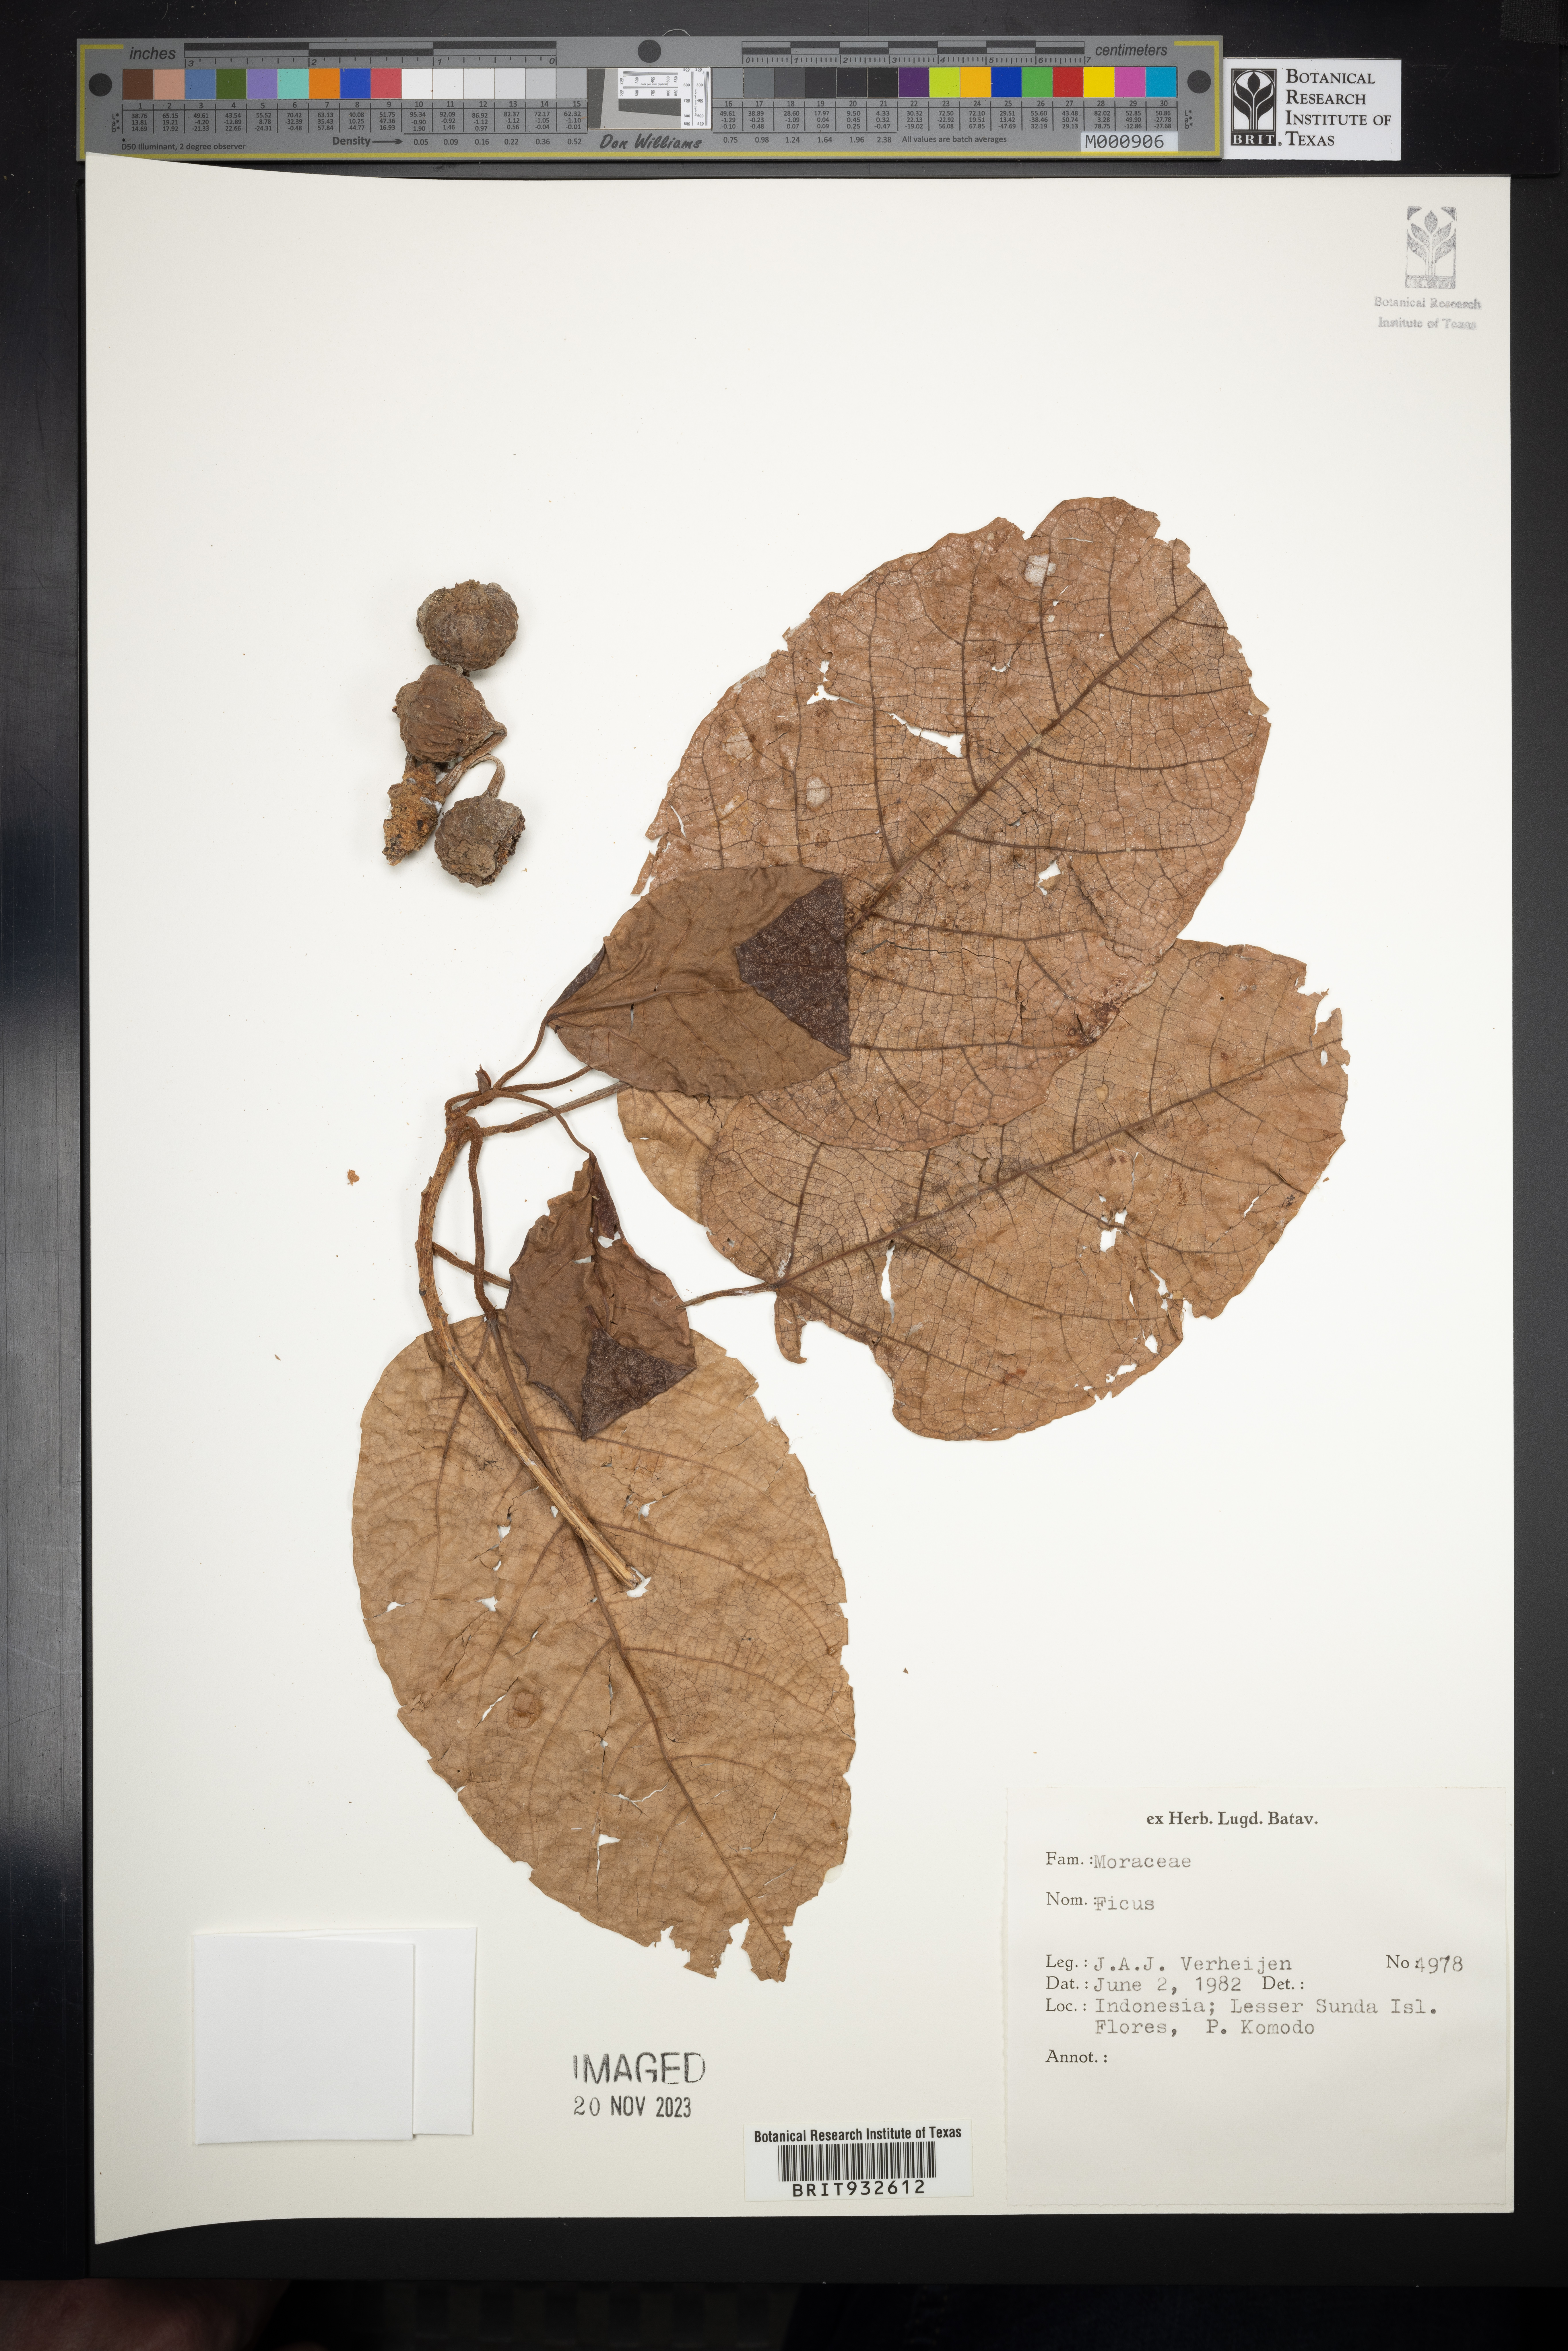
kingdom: Plantae
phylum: Tracheophyta
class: Magnoliopsida
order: Rosales
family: Moraceae
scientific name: Moraceae
